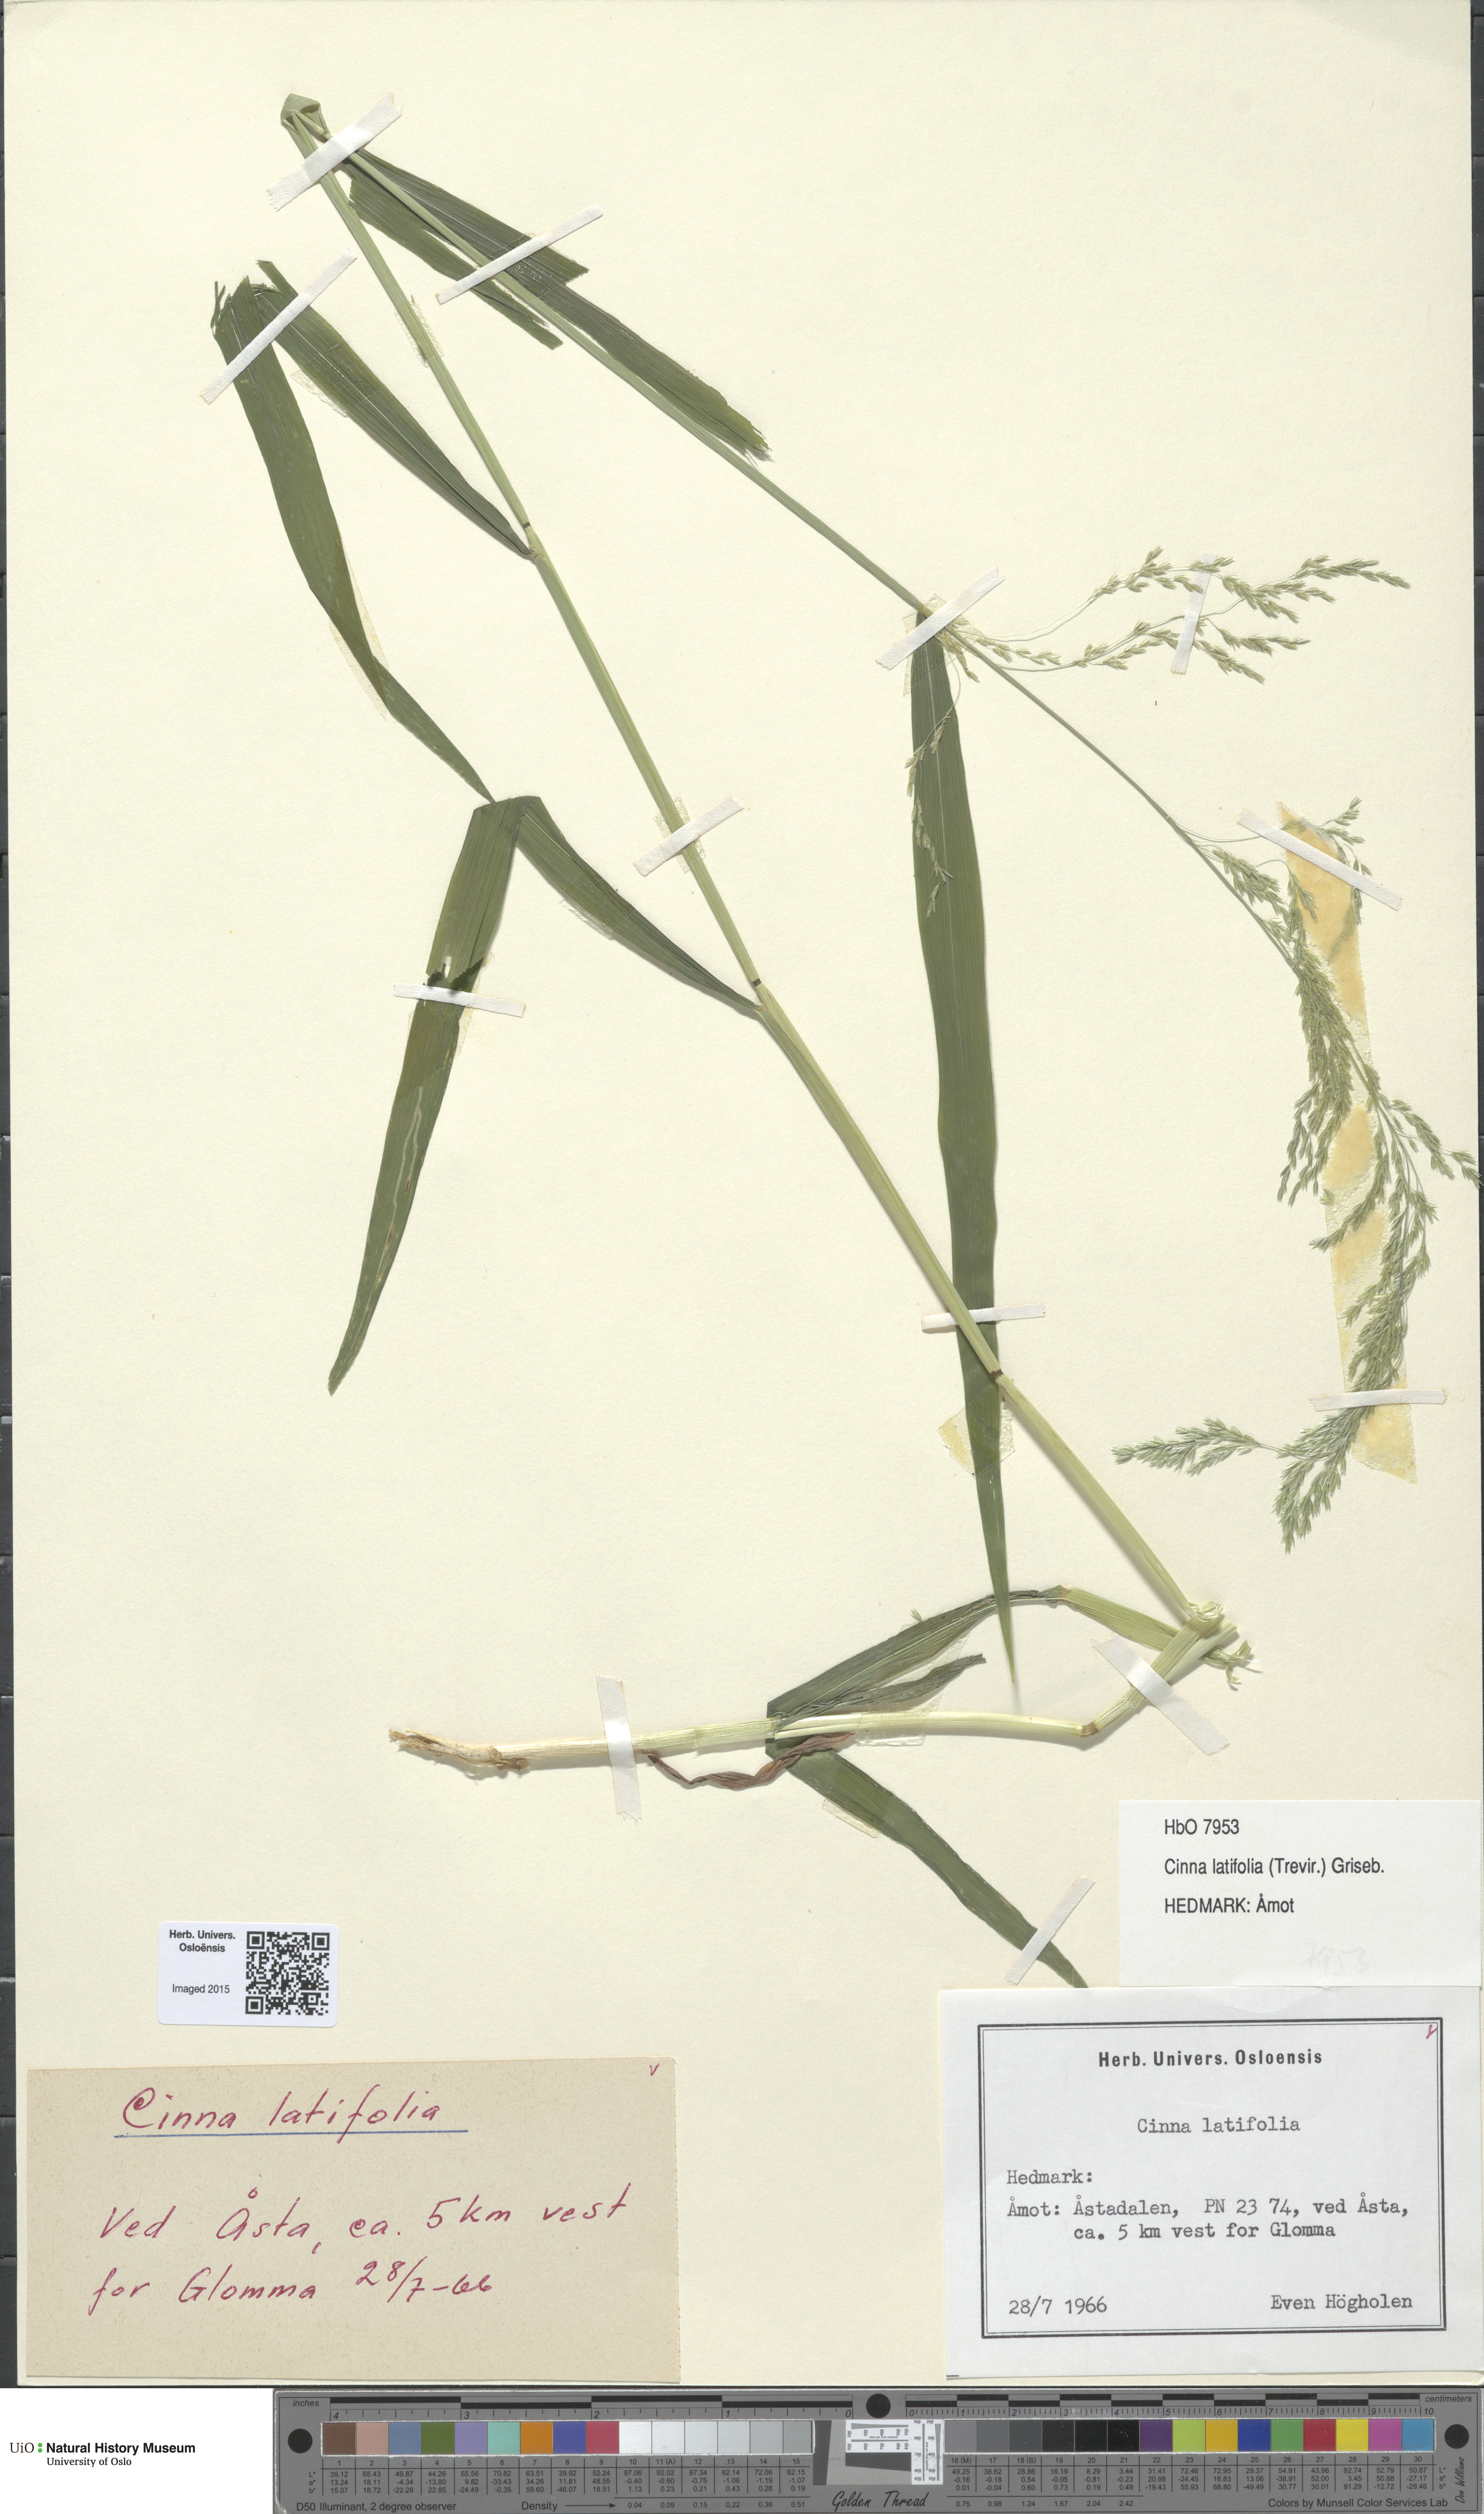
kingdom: Plantae
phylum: Tracheophyta
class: Liliopsida
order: Poales
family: Poaceae
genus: Cinna
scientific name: Cinna latifolia
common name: Drooping woodreed
